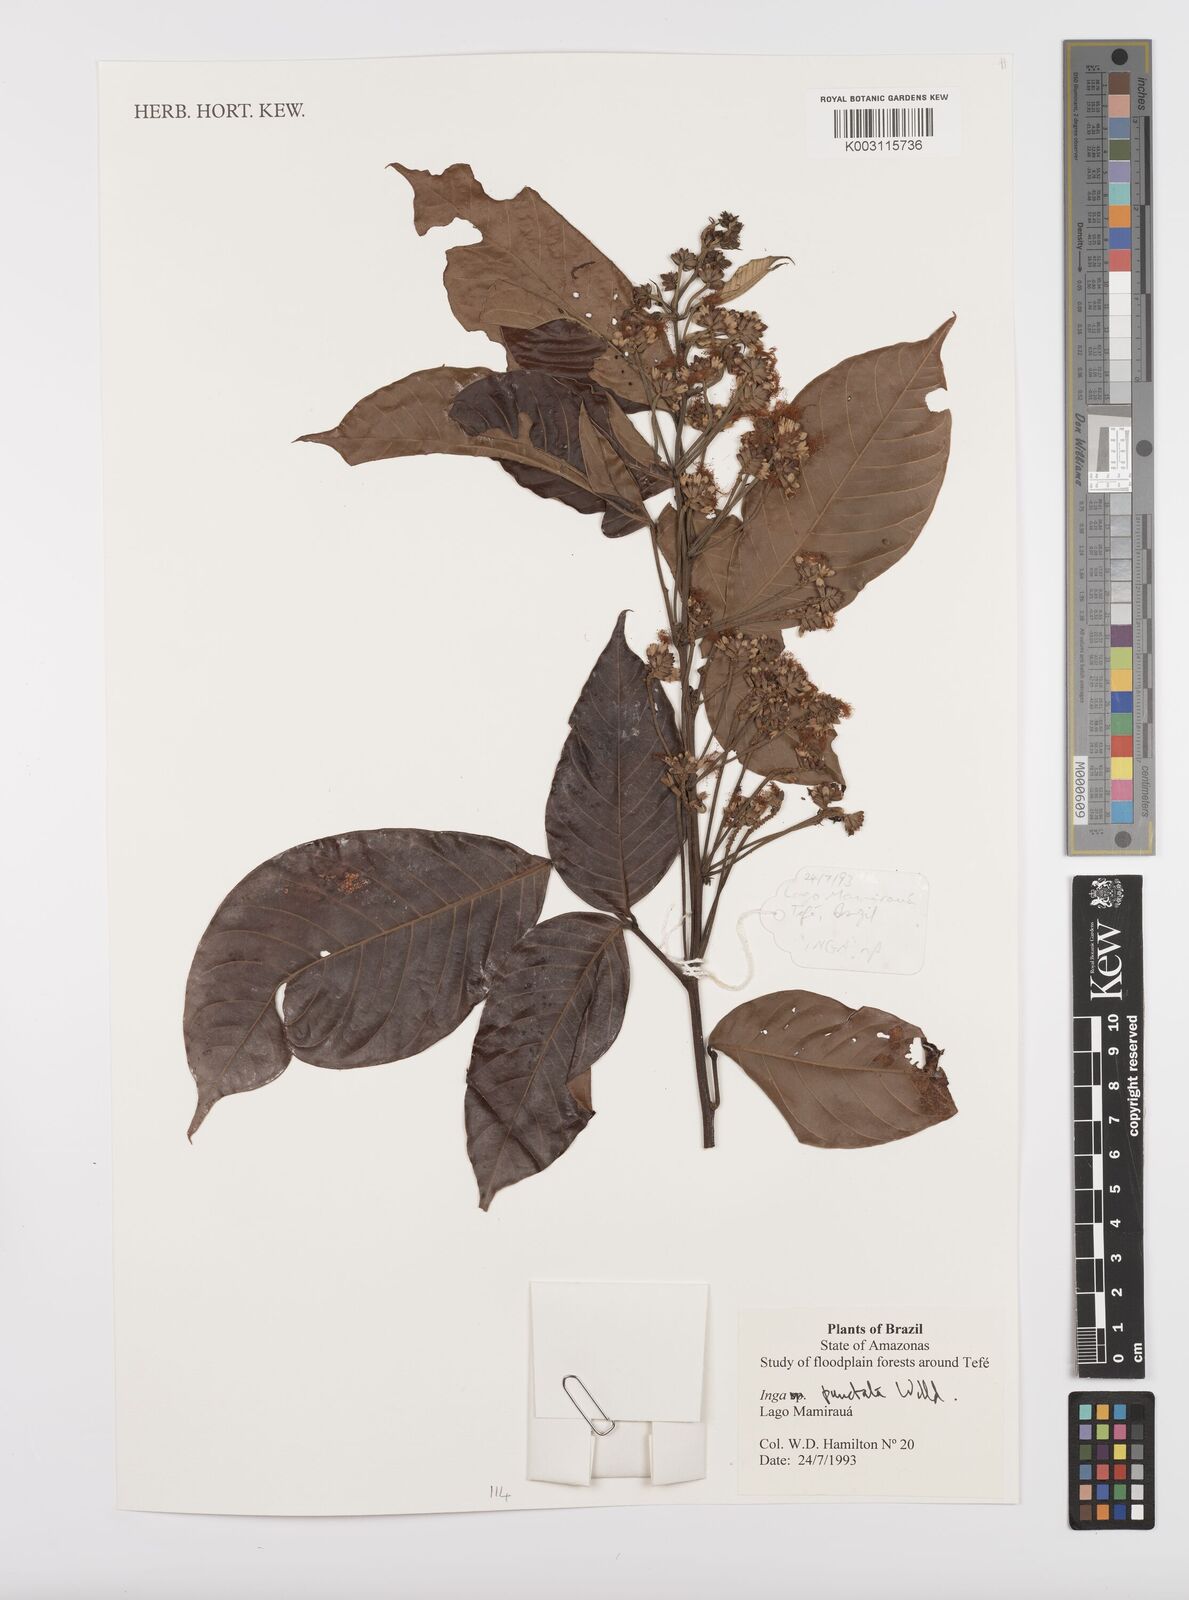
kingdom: Plantae
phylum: Tracheophyta
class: Magnoliopsida
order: Fabales
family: Fabaceae
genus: Inga
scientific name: Inga punctata
